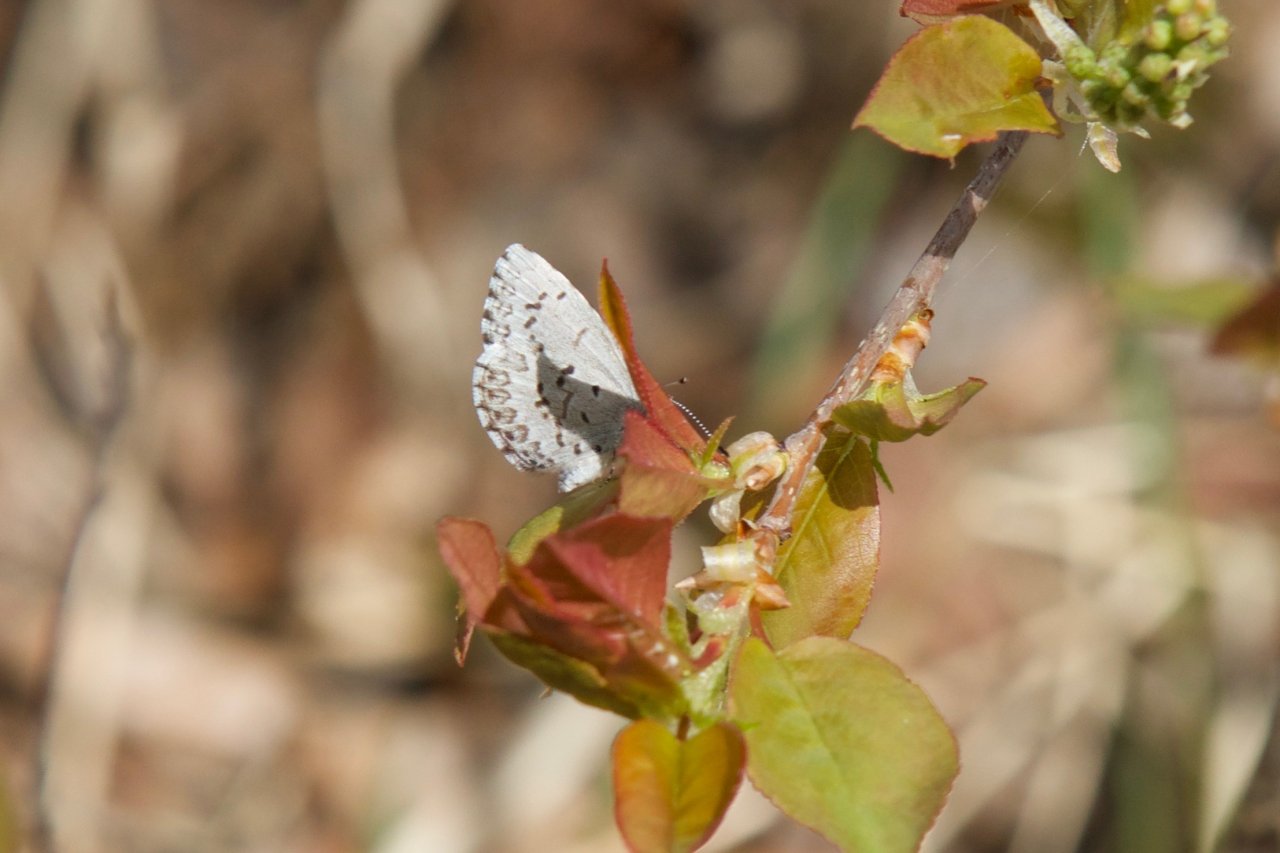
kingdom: Animalia
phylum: Arthropoda
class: Insecta
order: Lepidoptera
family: Lycaenidae
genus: Celastrina
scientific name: Celastrina lucia
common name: Northern Spring Azure
